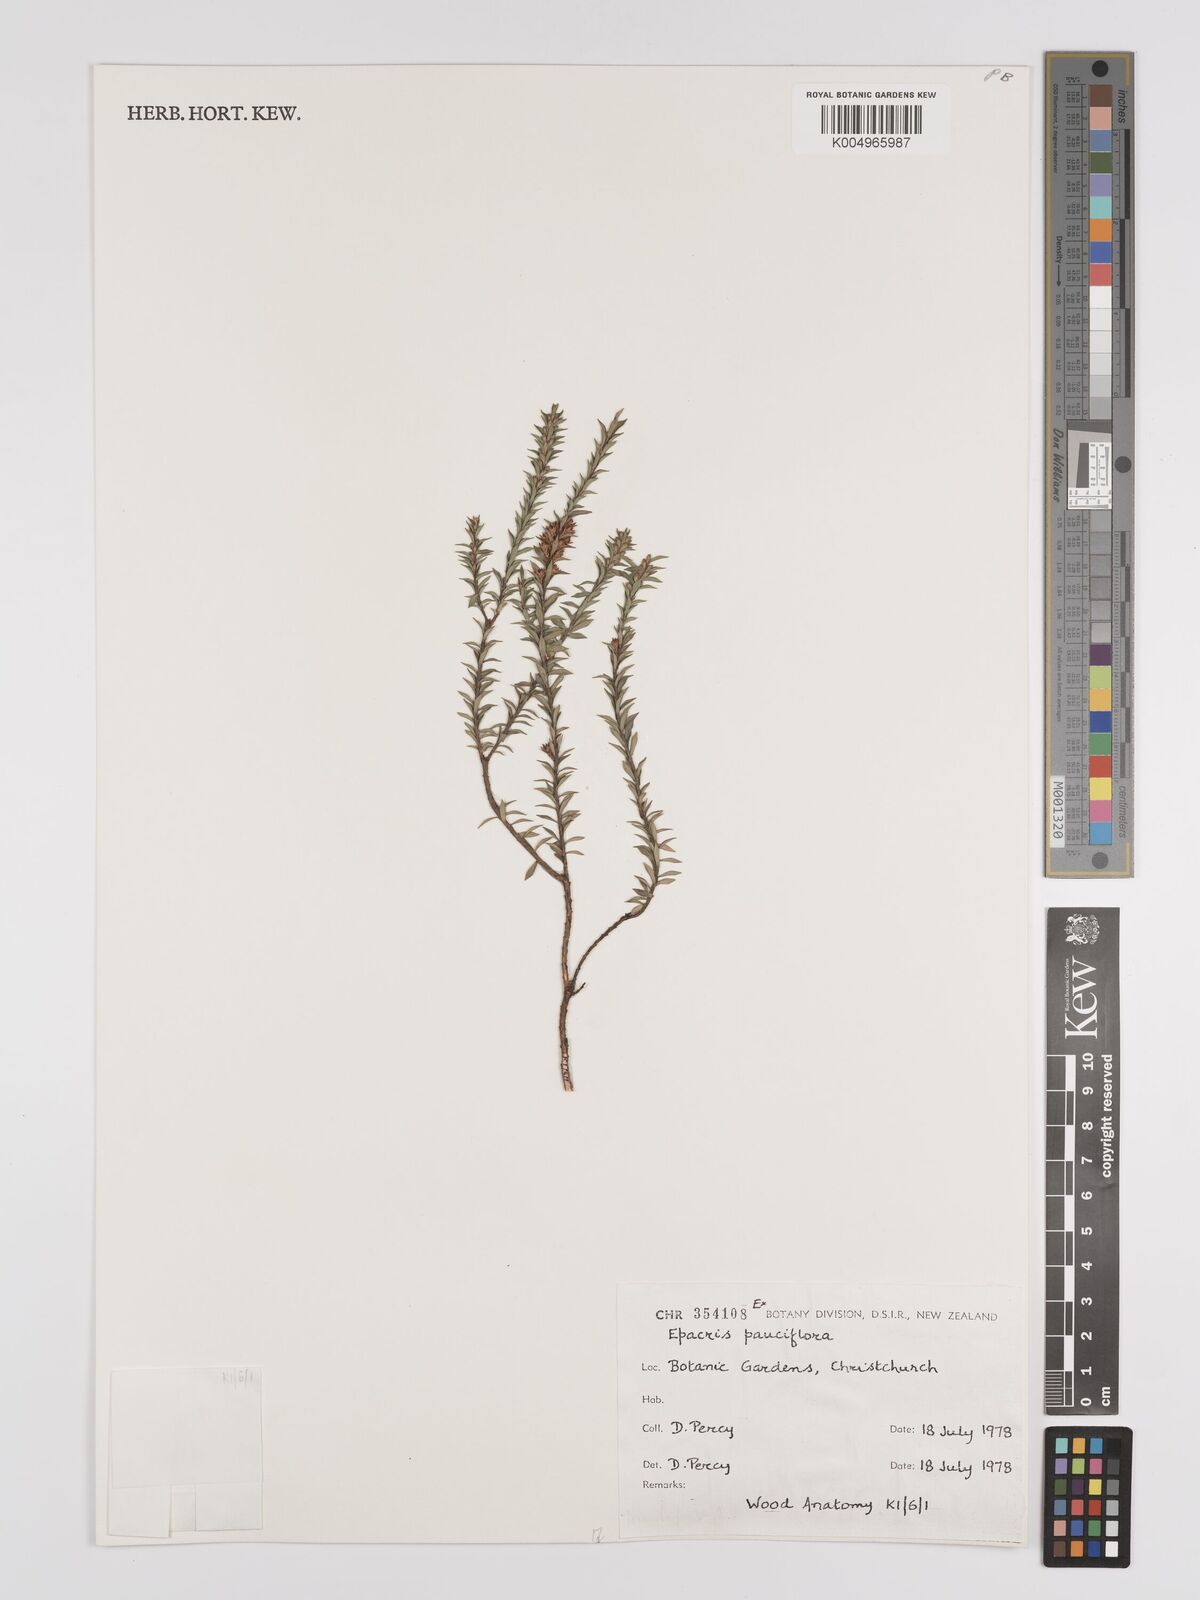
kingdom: Plantae
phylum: Tracheophyta
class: Magnoliopsida
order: Ericales
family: Ericaceae
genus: Epacris
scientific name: Epacris pauciflora
